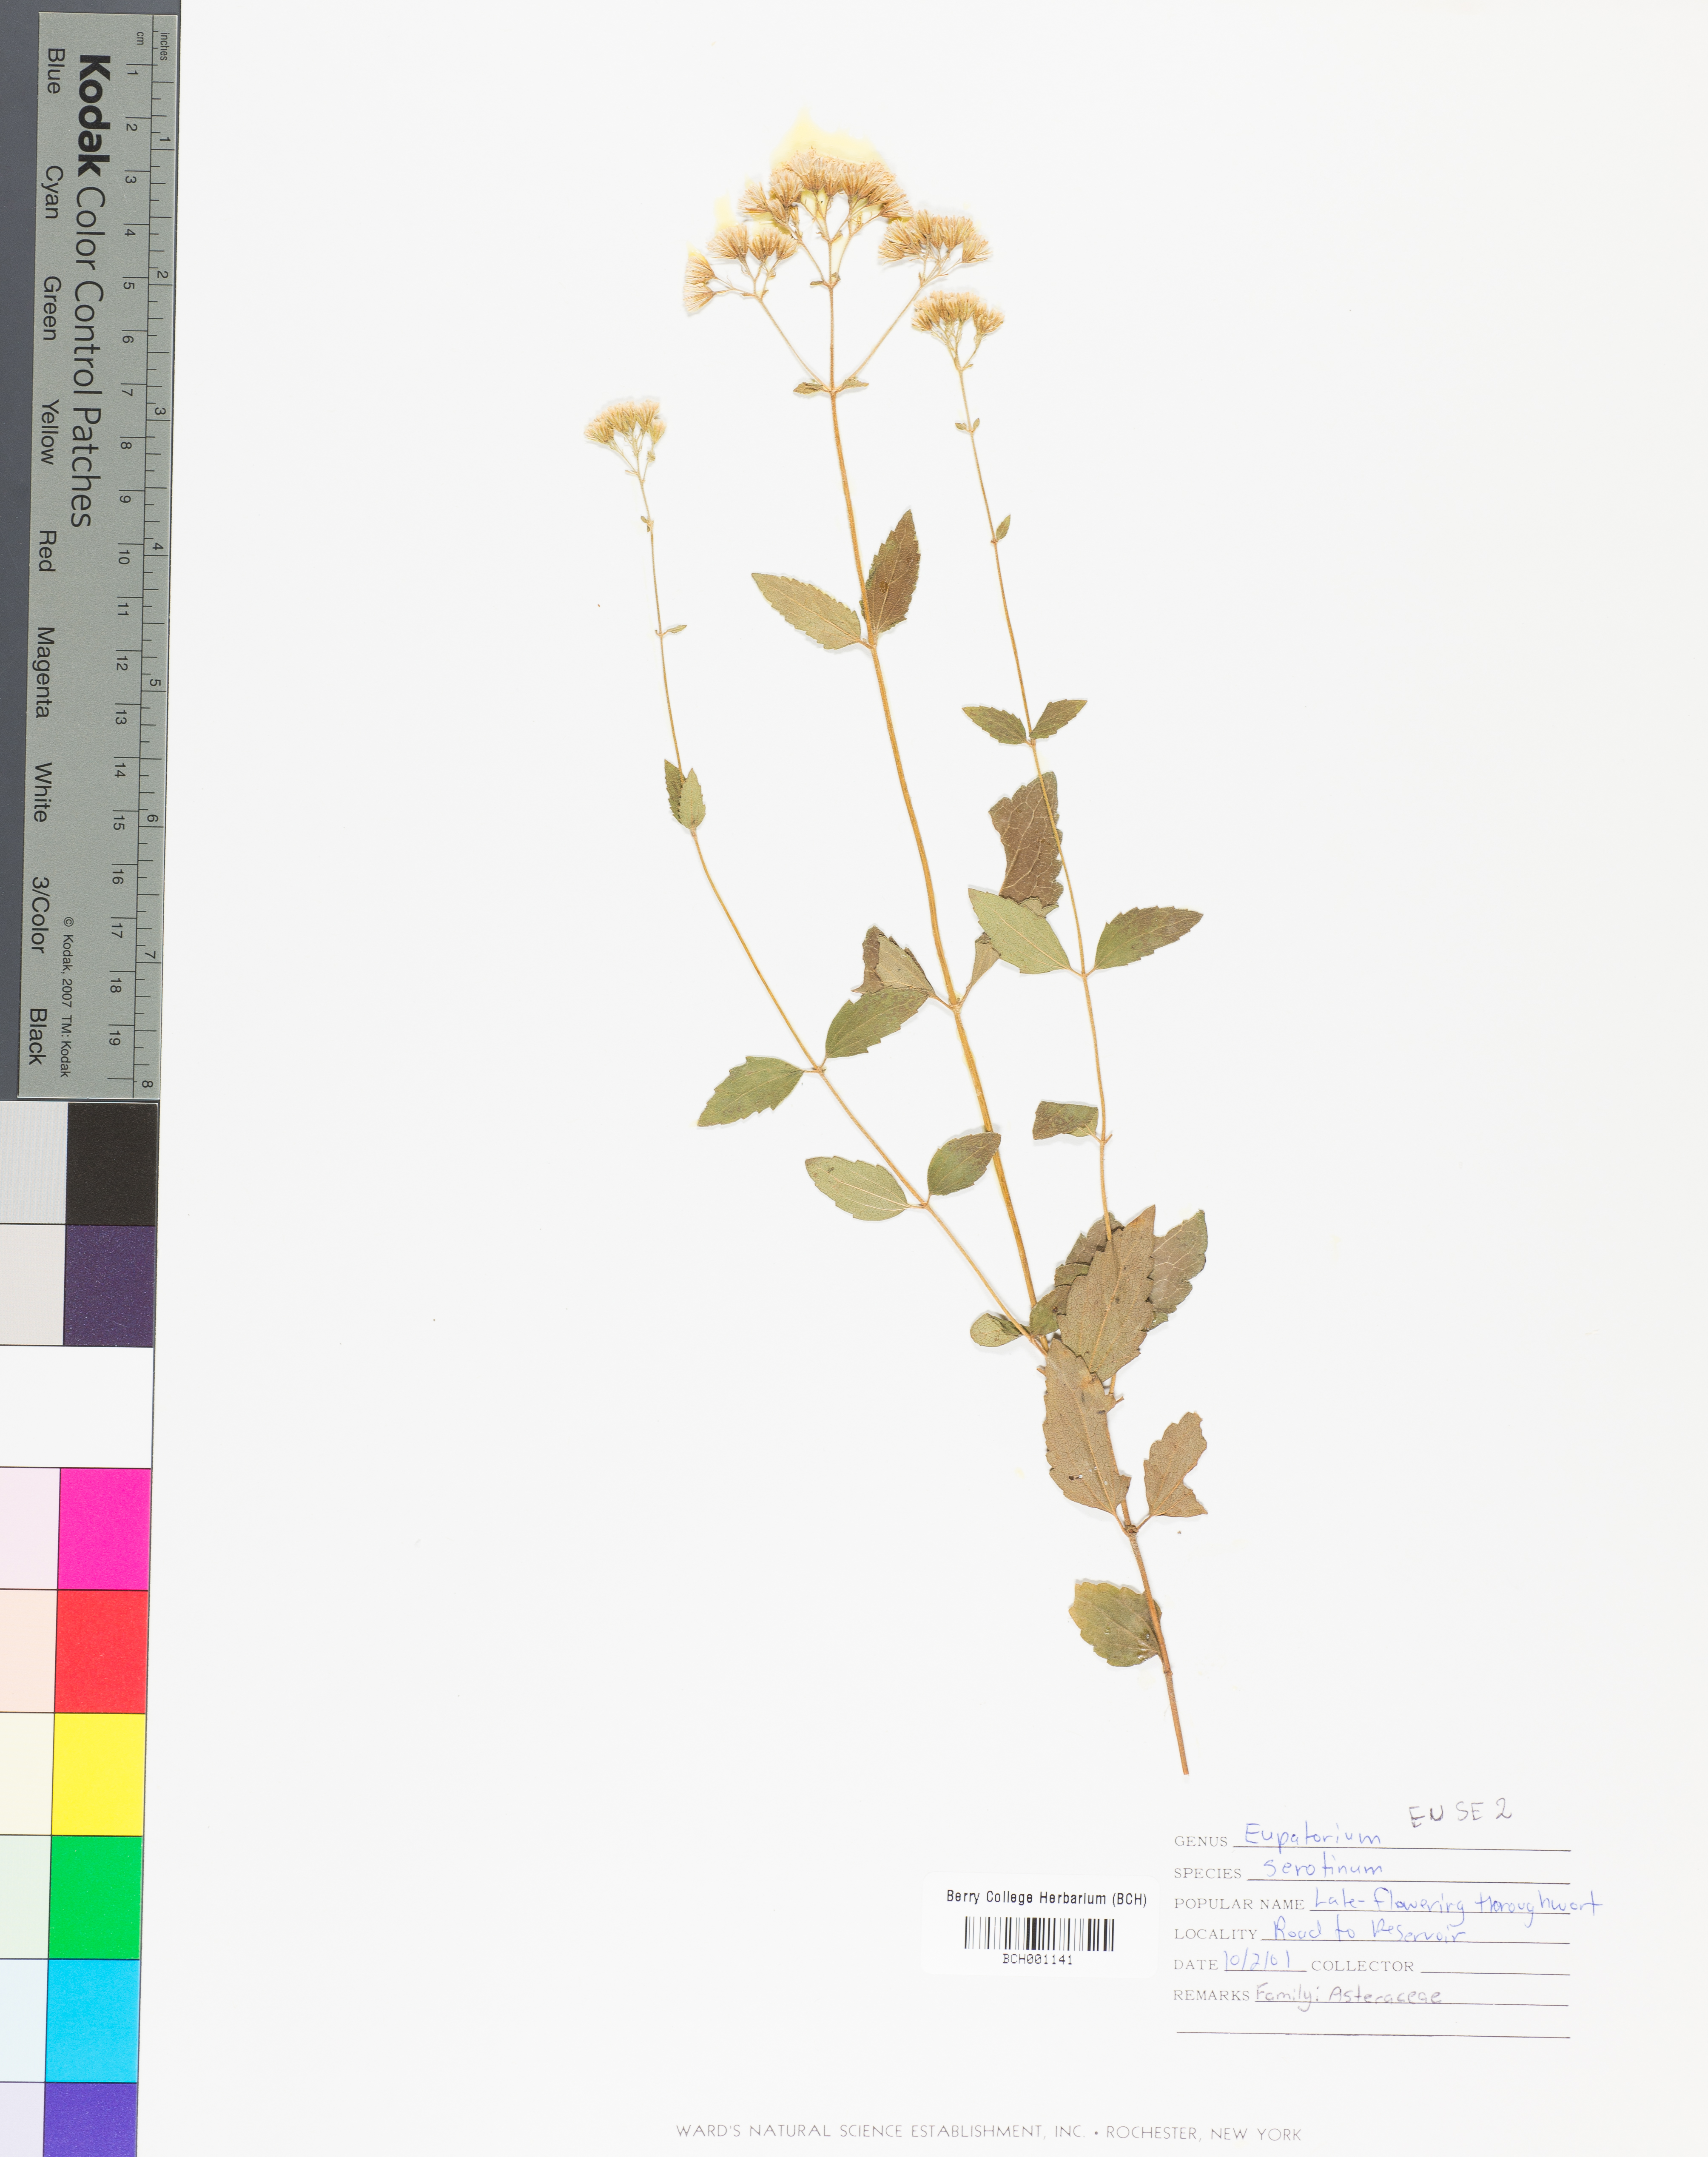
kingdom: Plantae
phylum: Tracheophyta
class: Magnoliopsida
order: Asterales
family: Asteraceae
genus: Eupatorium
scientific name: Eupatorium serotinum
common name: Late boneset
